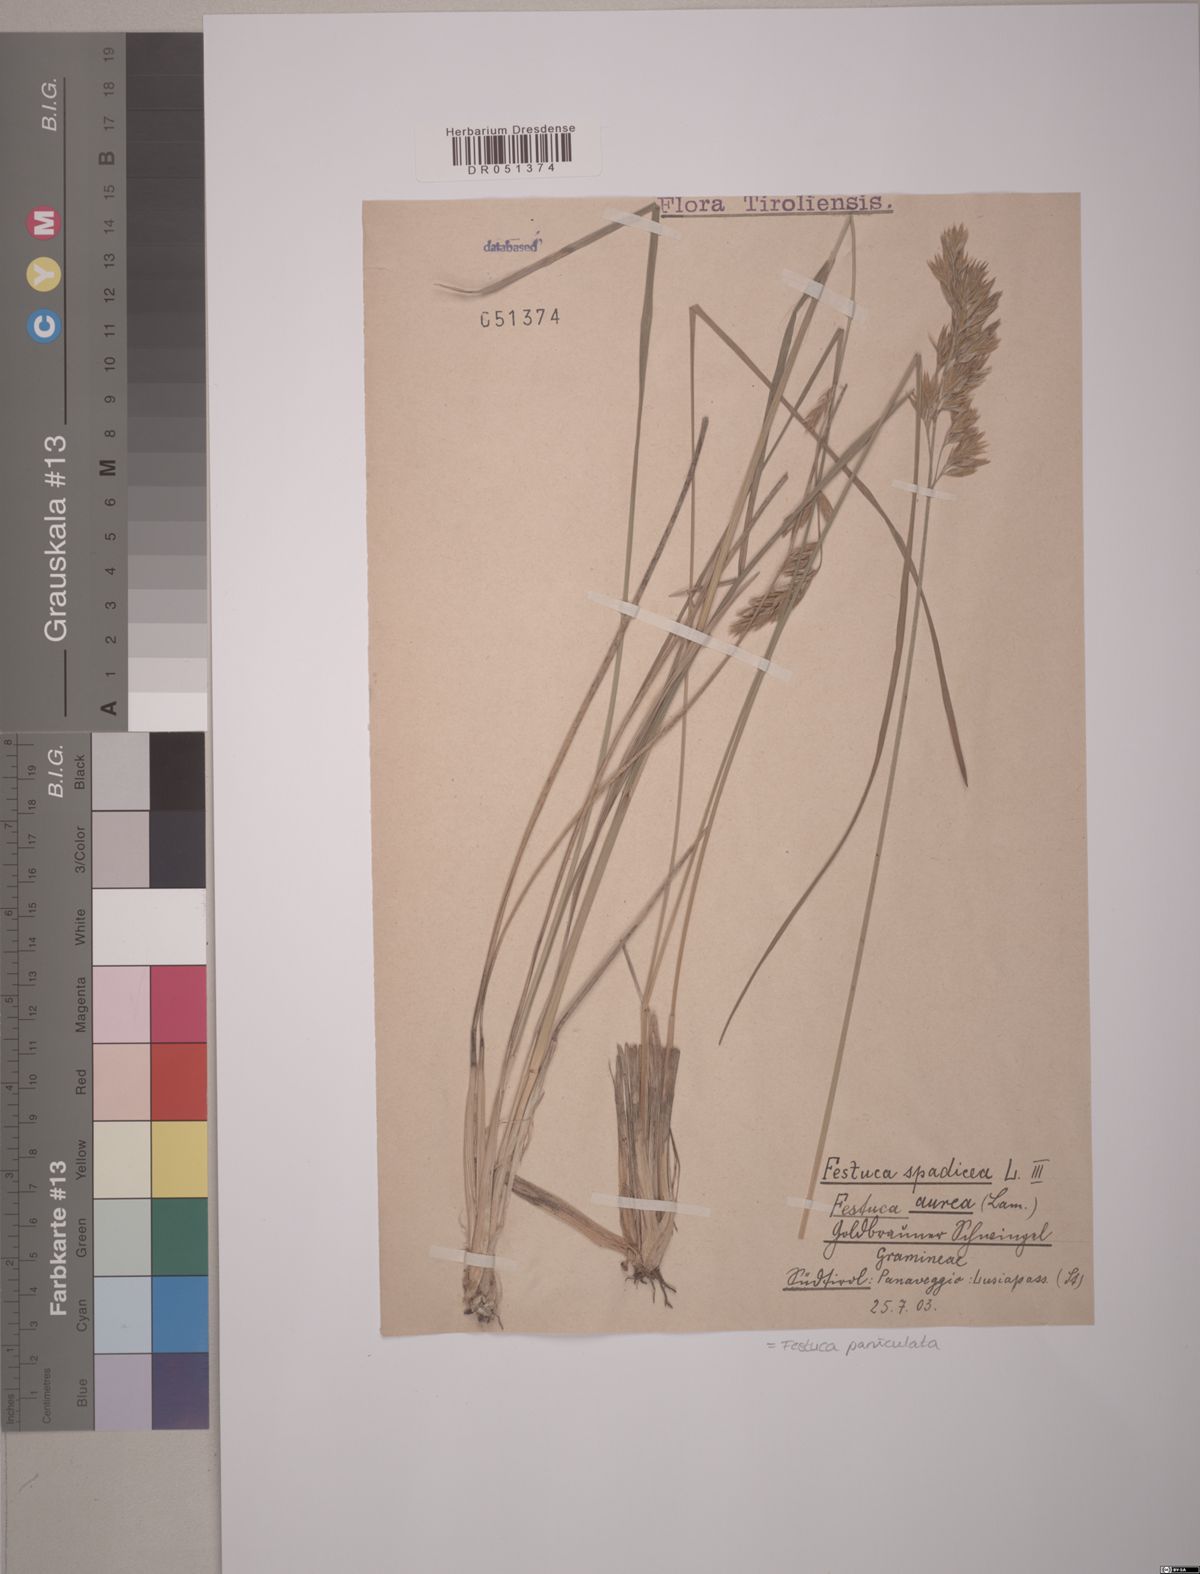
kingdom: Plantae
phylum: Tracheophyta
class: Liliopsida
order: Poales
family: Poaceae
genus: Patzkea
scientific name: Patzkea paniculata
